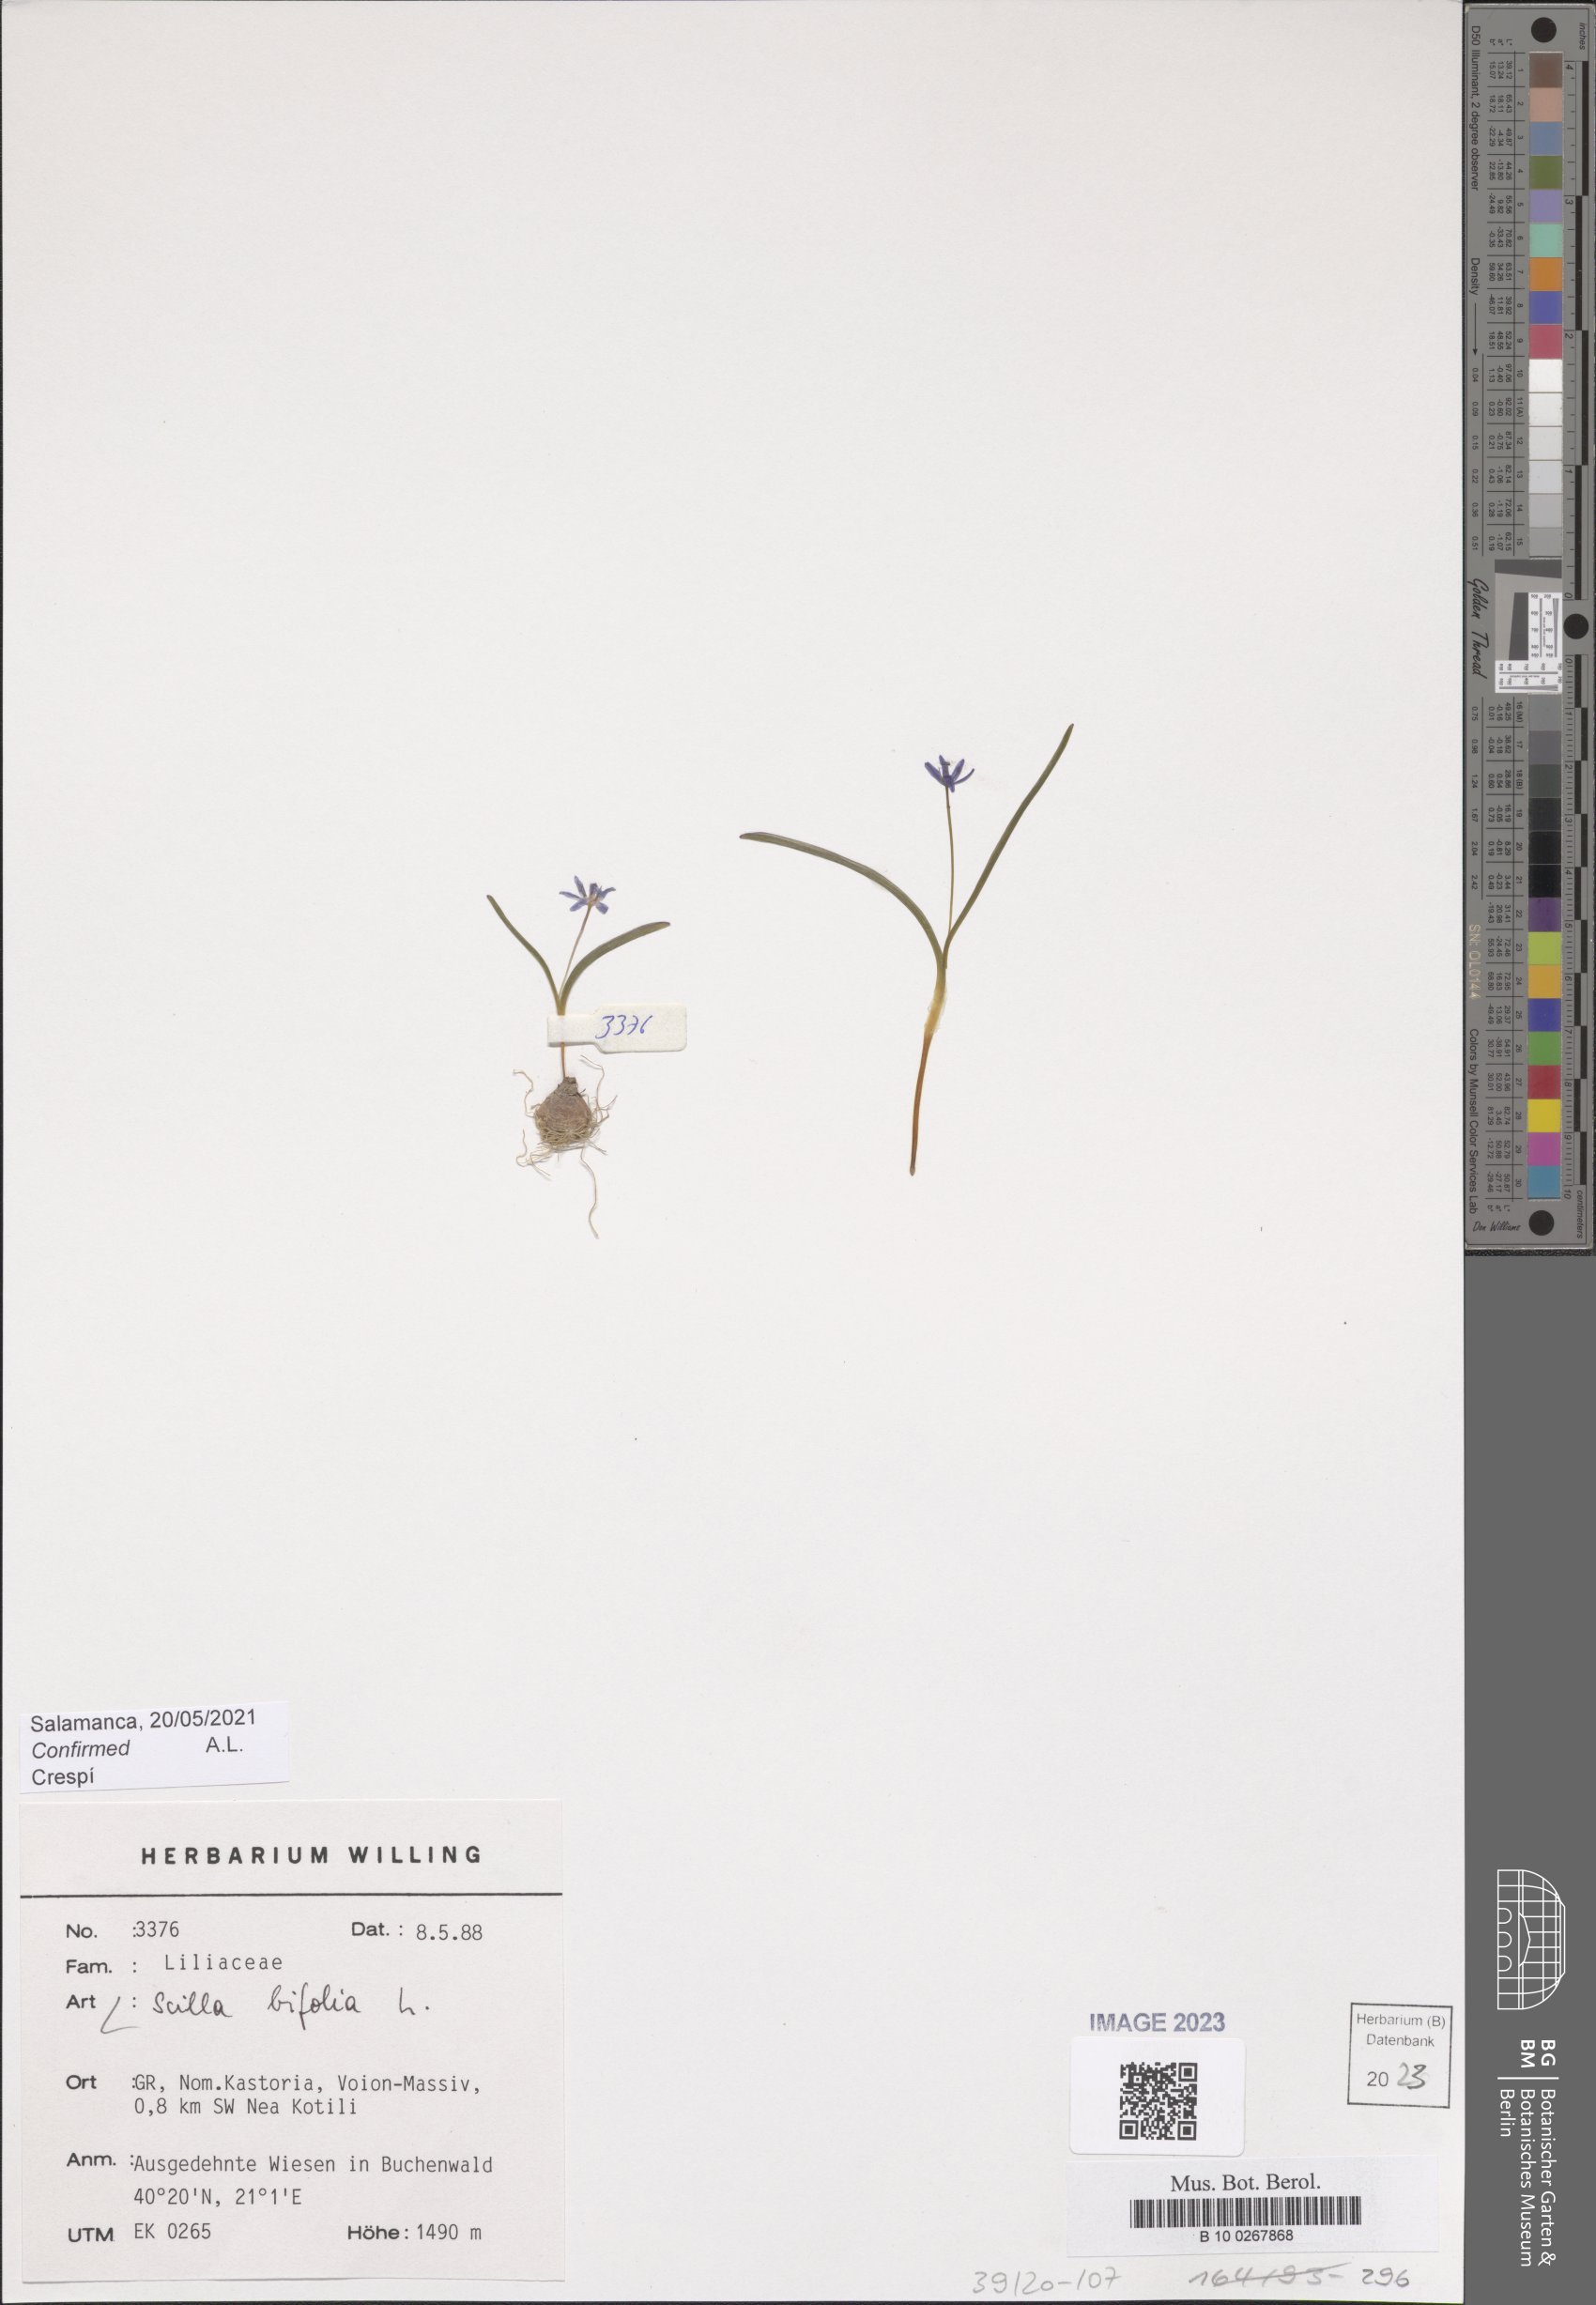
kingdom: Plantae
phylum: Tracheophyta
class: Liliopsida
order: Asparagales
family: Asparagaceae
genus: Scilla
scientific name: Scilla bifolia
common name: Alpine squill
